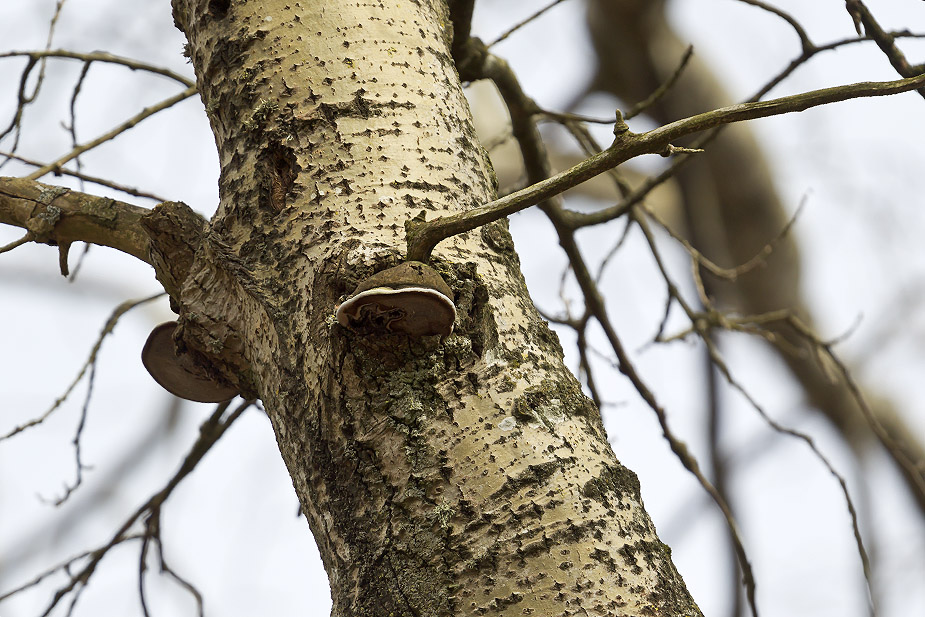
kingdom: Fungi
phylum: Basidiomycota
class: Agaricomycetes
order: Hymenochaetales
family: Hymenochaetaceae
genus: Phellinus
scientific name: Phellinus populicola
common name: poppel-ildporesvamp
